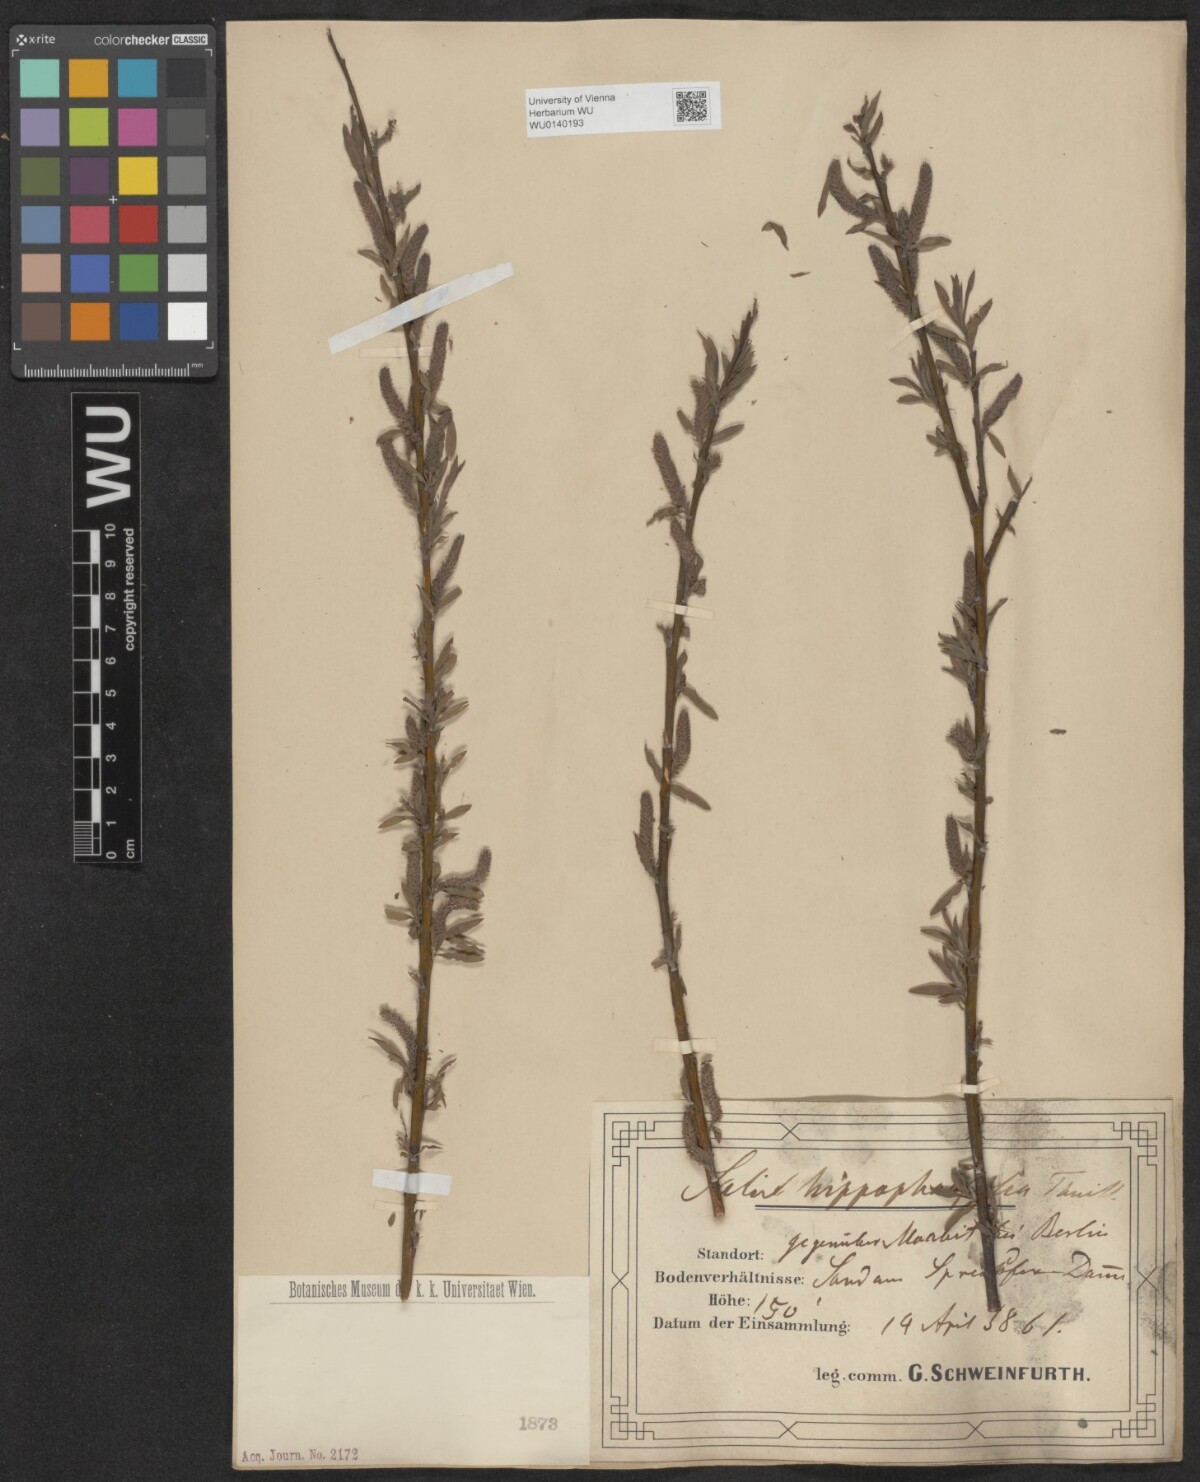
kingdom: Plantae
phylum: Tracheophyta
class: Magnoliopsida
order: Malpighiales
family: Salicaceae
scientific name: Salicaceae
